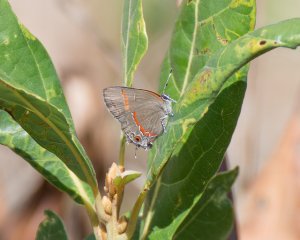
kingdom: Animalia
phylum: Arthropoda
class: Insecta
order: Lepidoptera
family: Lycaenidae
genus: Calycopis
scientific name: Calycopis cecrops
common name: Red-banded Hairstreak
